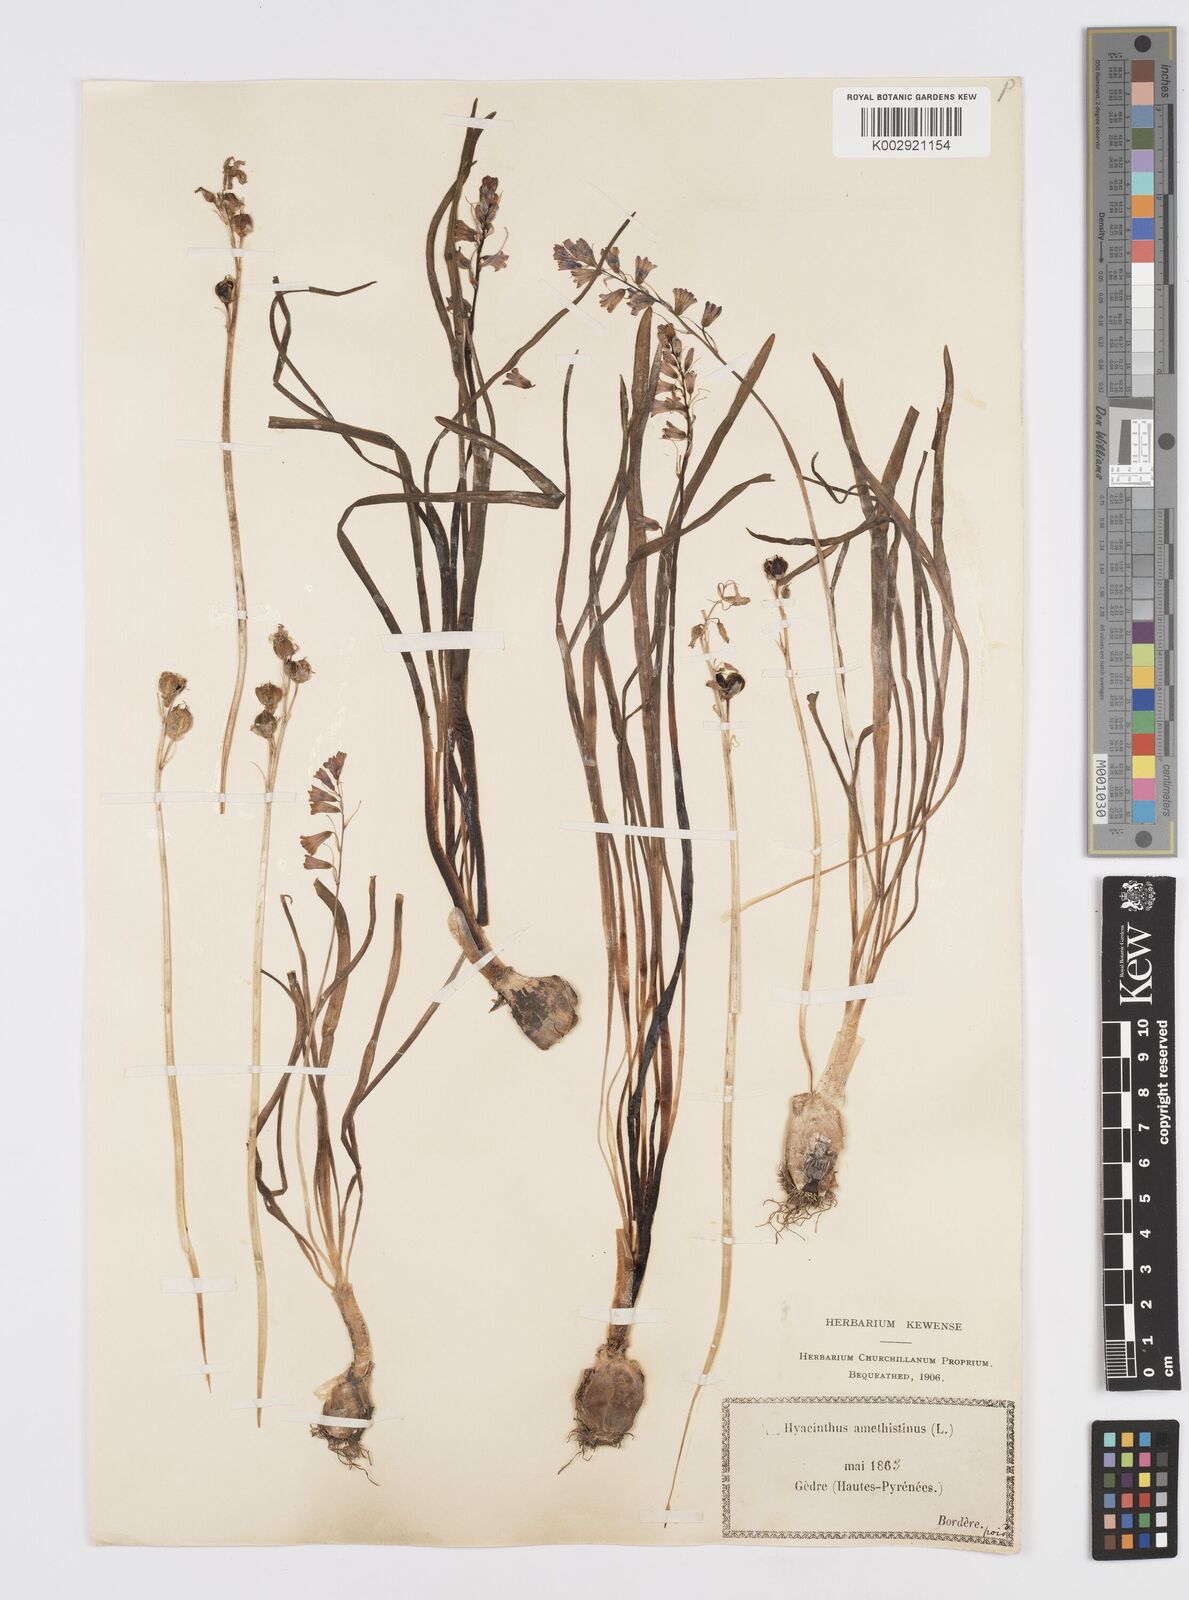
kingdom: Plantae
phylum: Tracheophyta
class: Liliopsida
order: Asparagales
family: Asparagaceae
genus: Brimeura
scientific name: Brimeura amethystina
